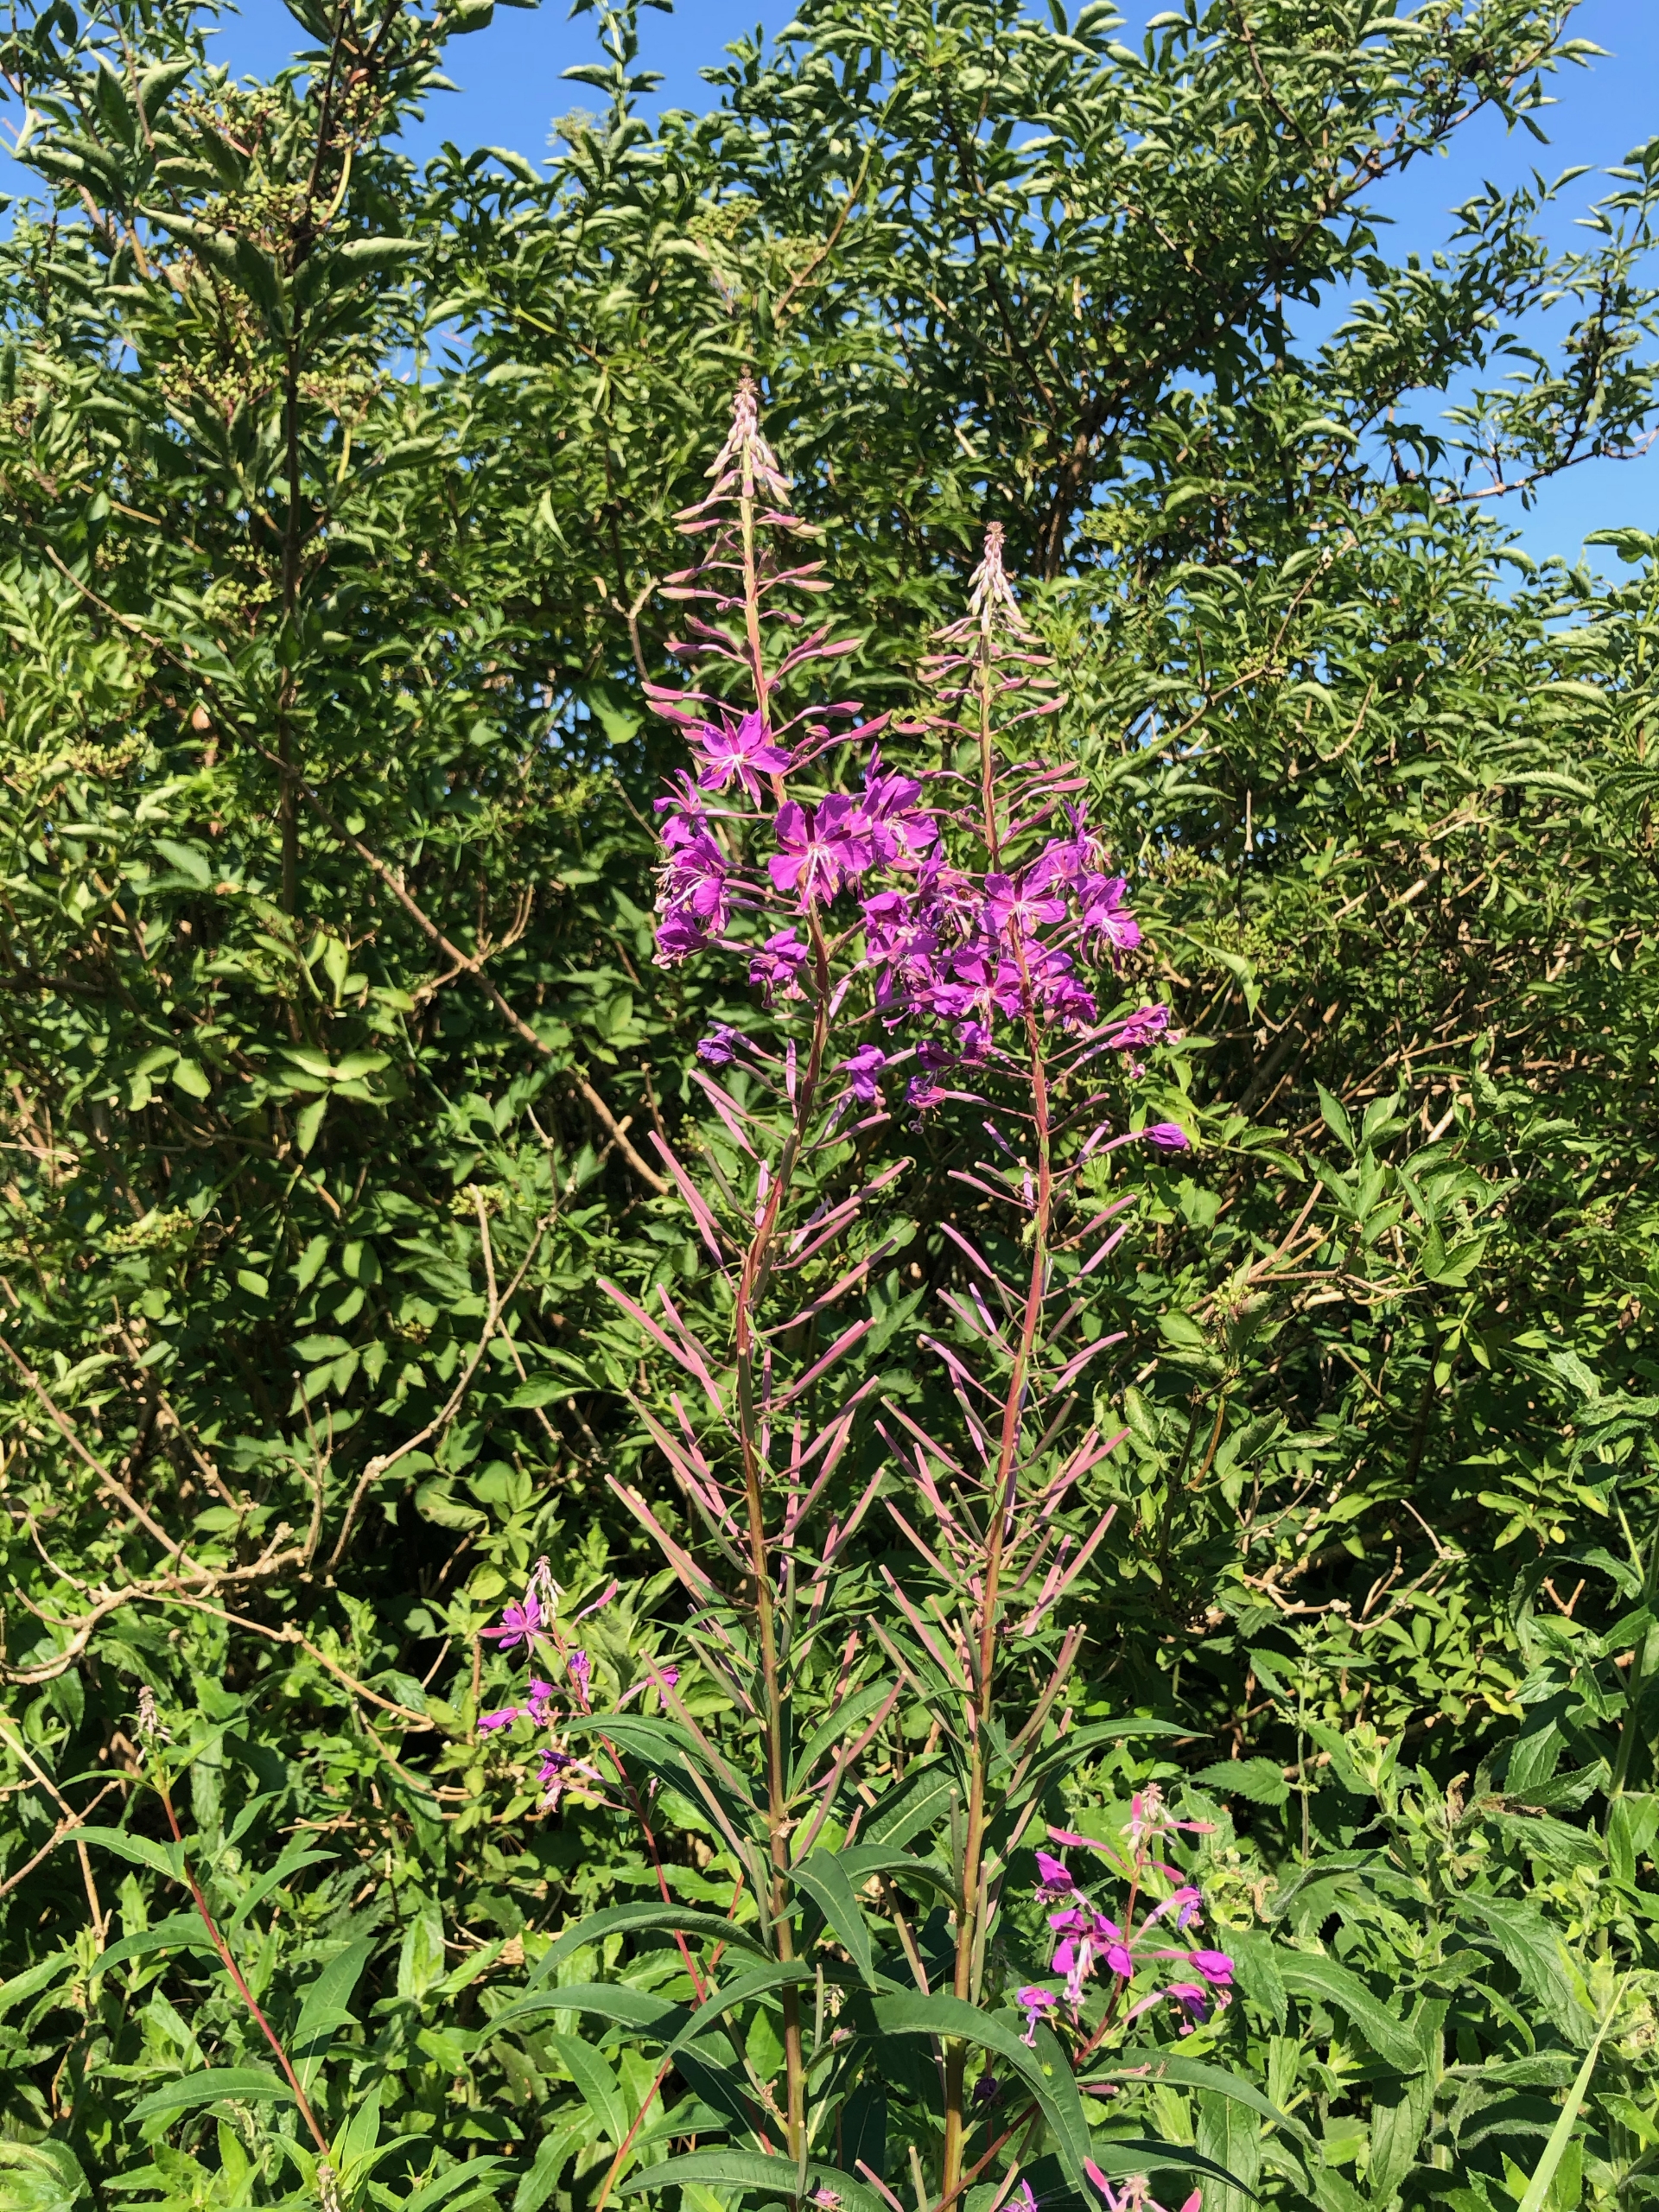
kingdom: Plantae
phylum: Tracheophyta
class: Magnoliopsida
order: Myrtales
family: Onagraceae
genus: Chamaenerion
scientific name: Chamaenerion angustifolium
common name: Gederams
